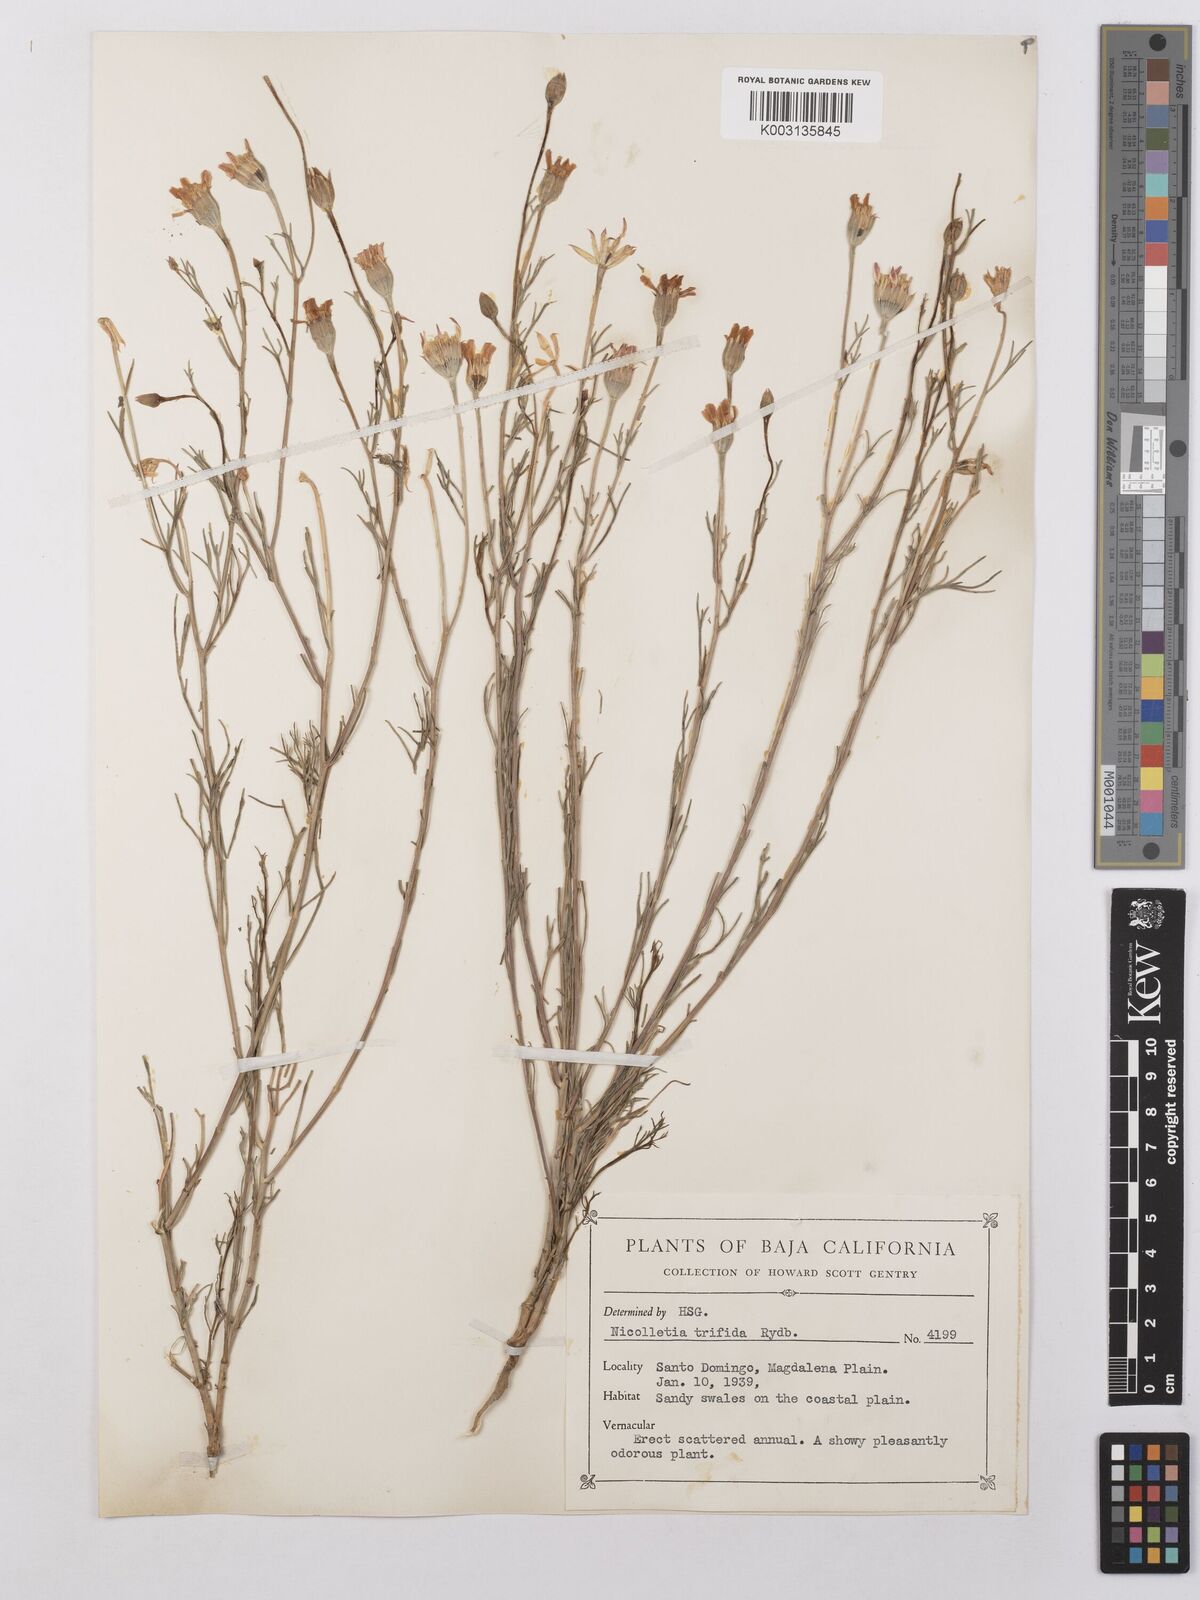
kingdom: Plantae
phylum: Tracheophyta
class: Magnoliopsida
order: Asterales
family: Asteraceae
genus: Nicolletia
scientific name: Nicolletia trifida
